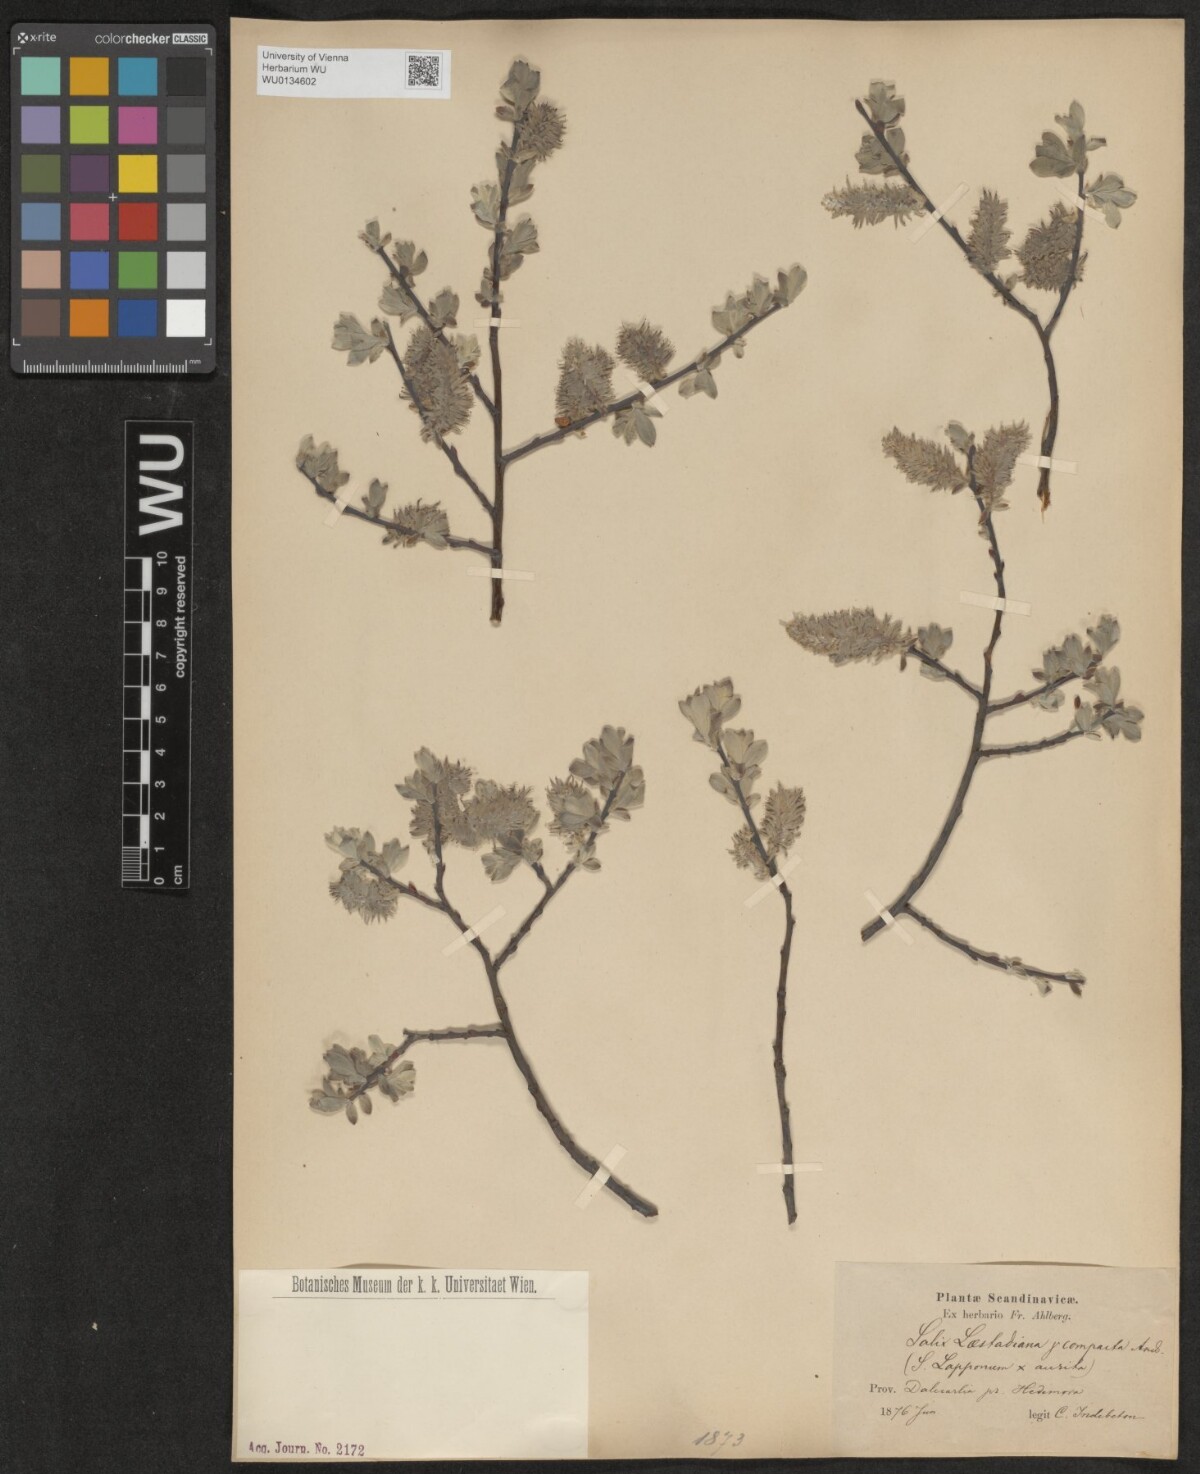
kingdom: Plantae
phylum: Tracheophyta
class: Magnoliopsida
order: Malpighiales
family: Salicaceae
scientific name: Salicaceae
